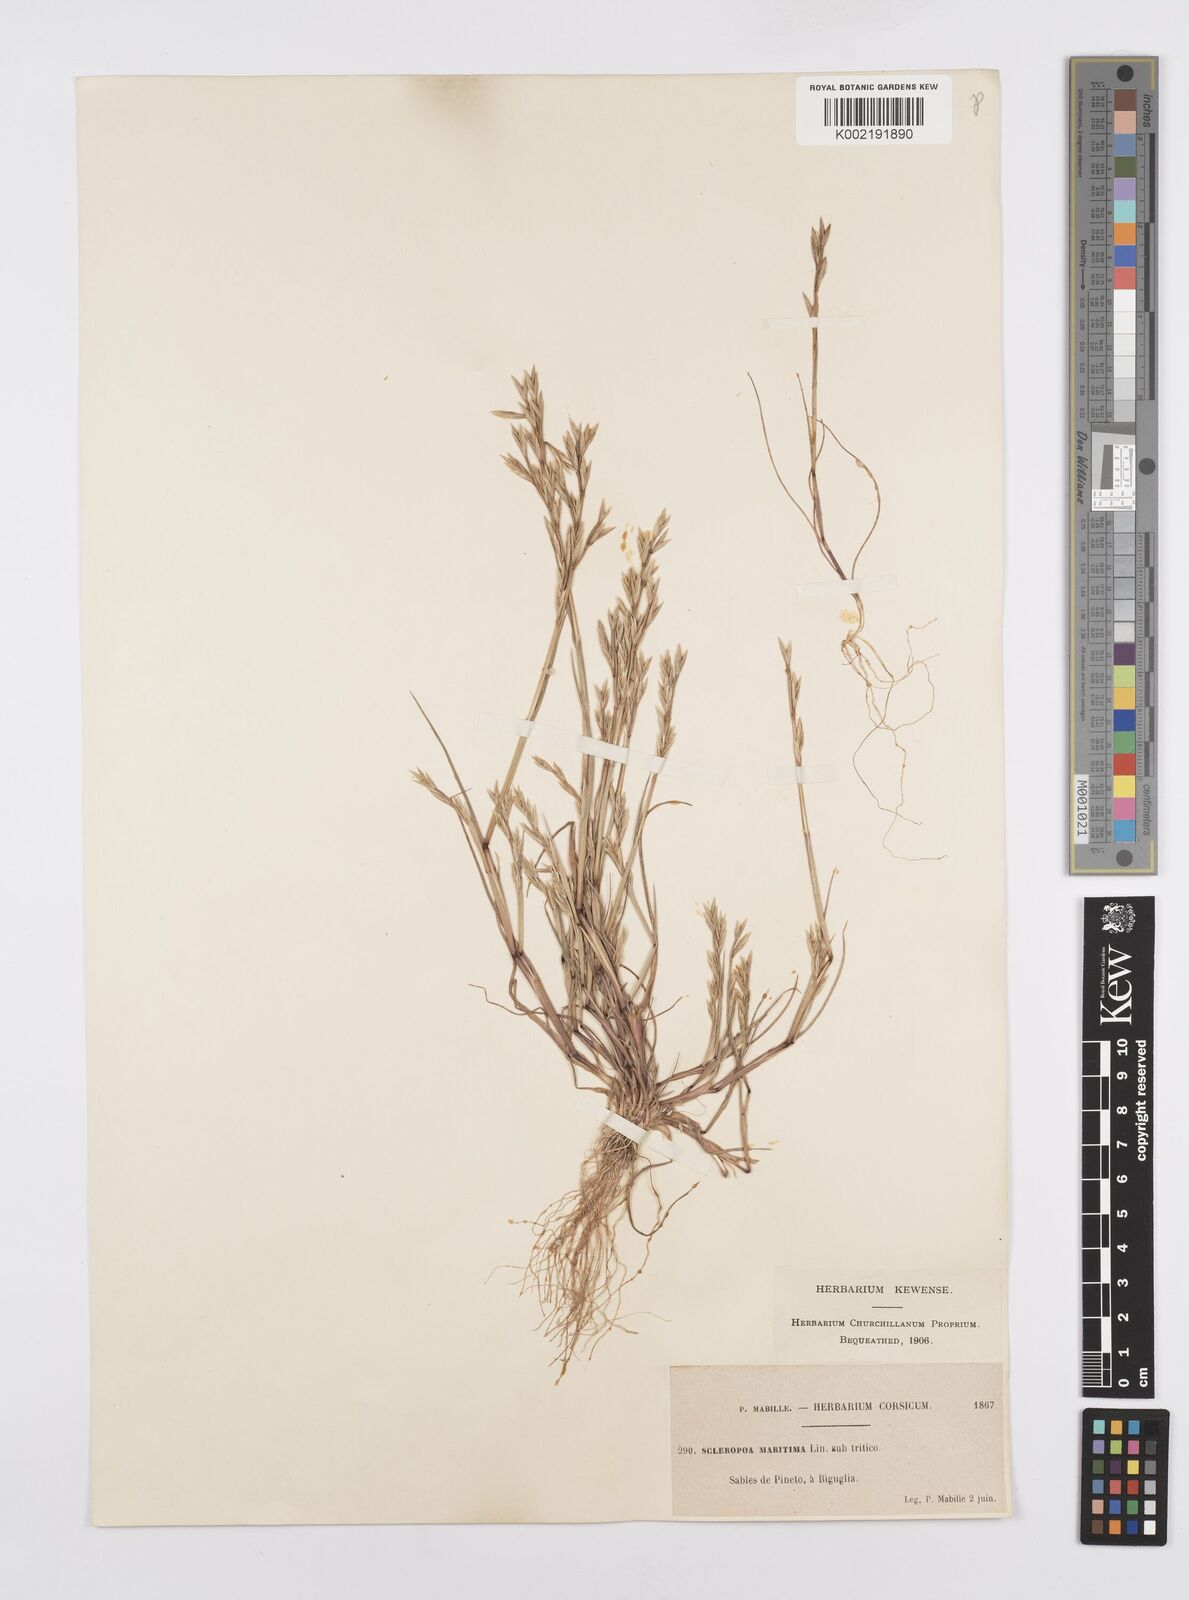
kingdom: Plantae
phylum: Tracheophyta
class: Liliopsida
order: Poales
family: Poaceae
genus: Cutandia
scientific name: Cutandia maritima
